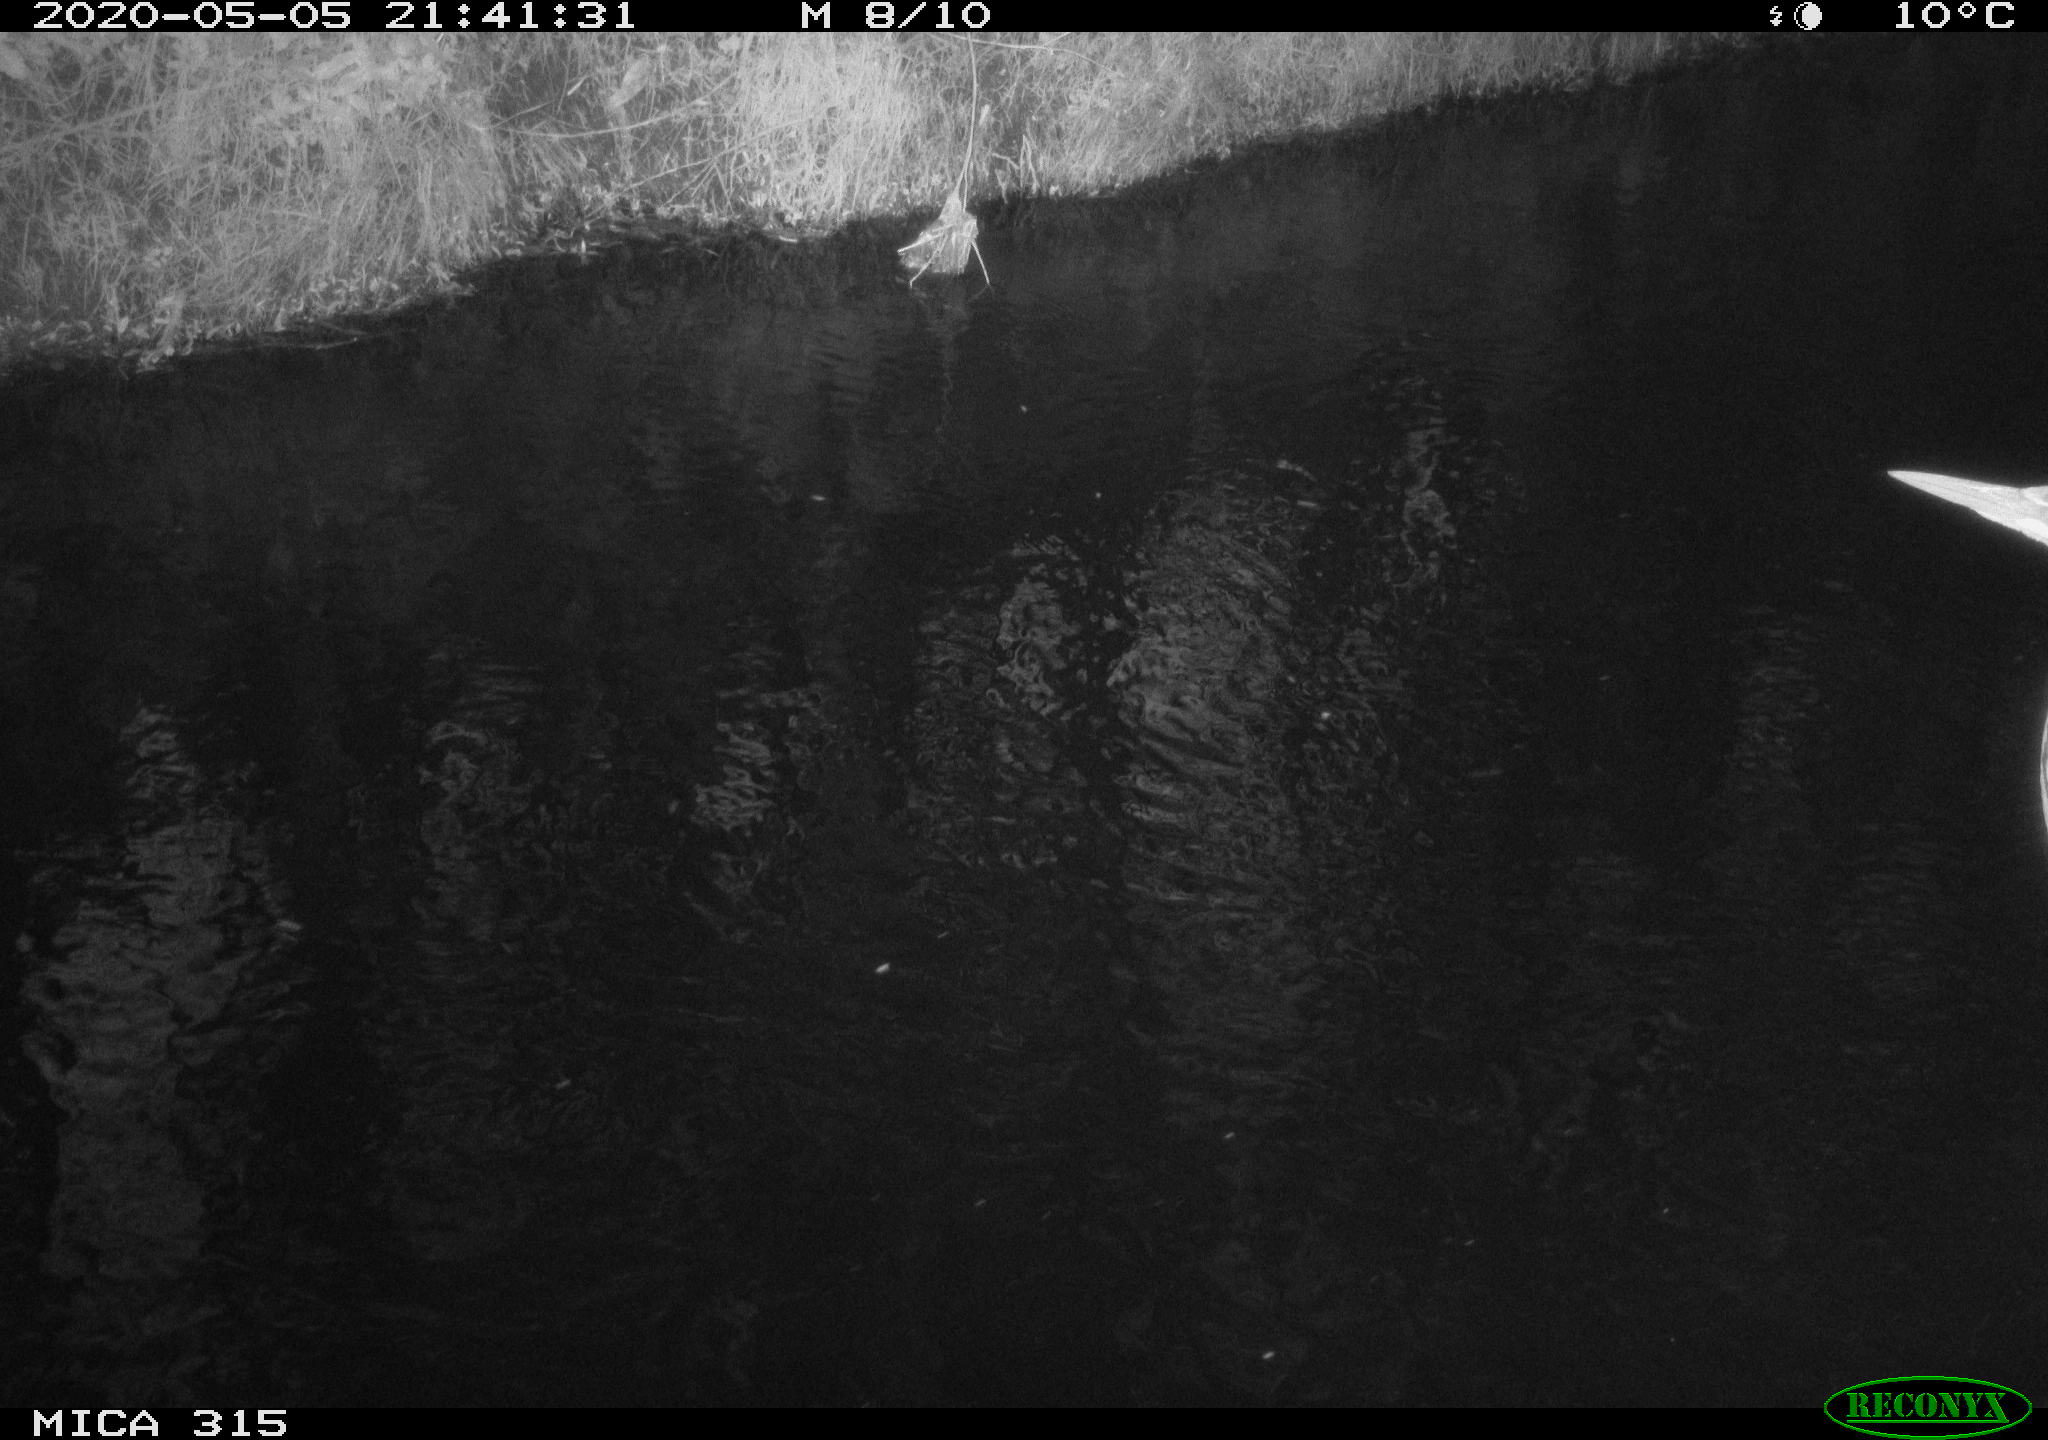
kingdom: Animalia
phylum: Chordata
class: Aves
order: Pelecaniformes
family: Ardeidae
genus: Ardea
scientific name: Ardea cinerea
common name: Grey heron
